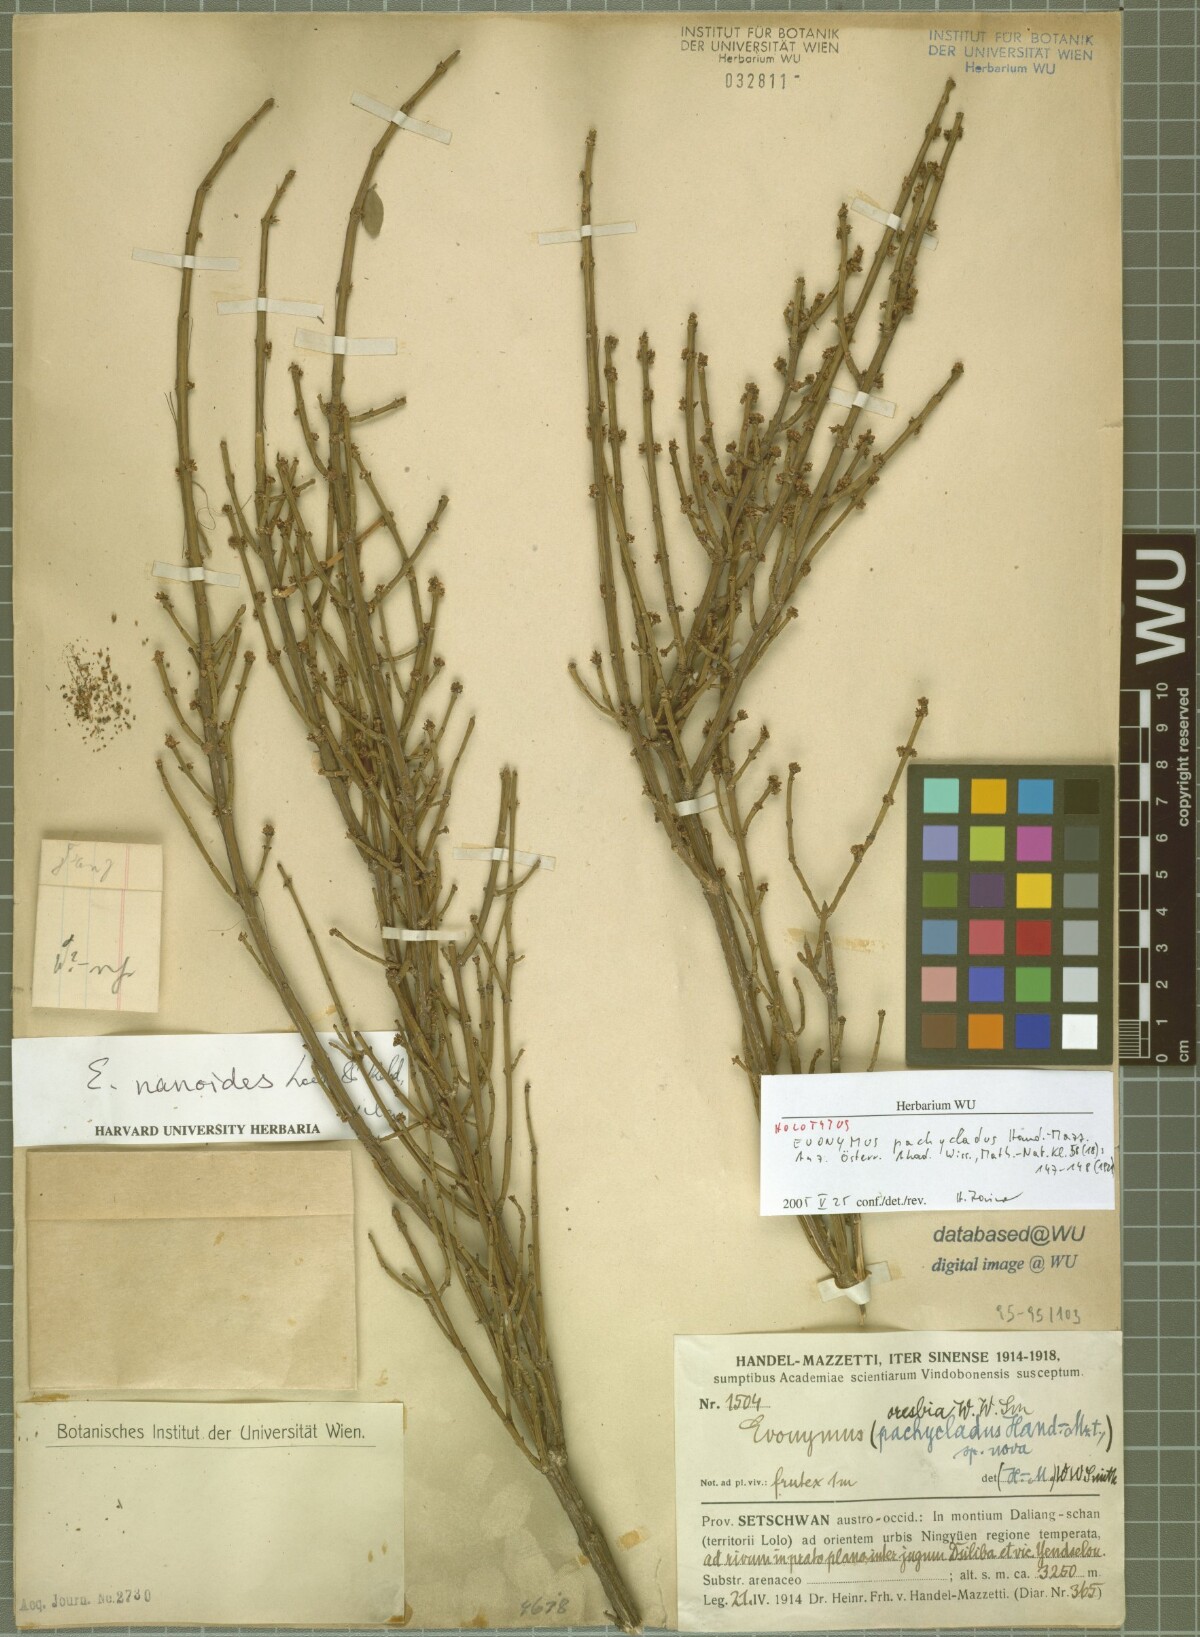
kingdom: Plantae
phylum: Tracheophyta
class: Magnoliopsida
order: Celastrales
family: Celastraceae
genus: Euonymus
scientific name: Euonymus nanoides
